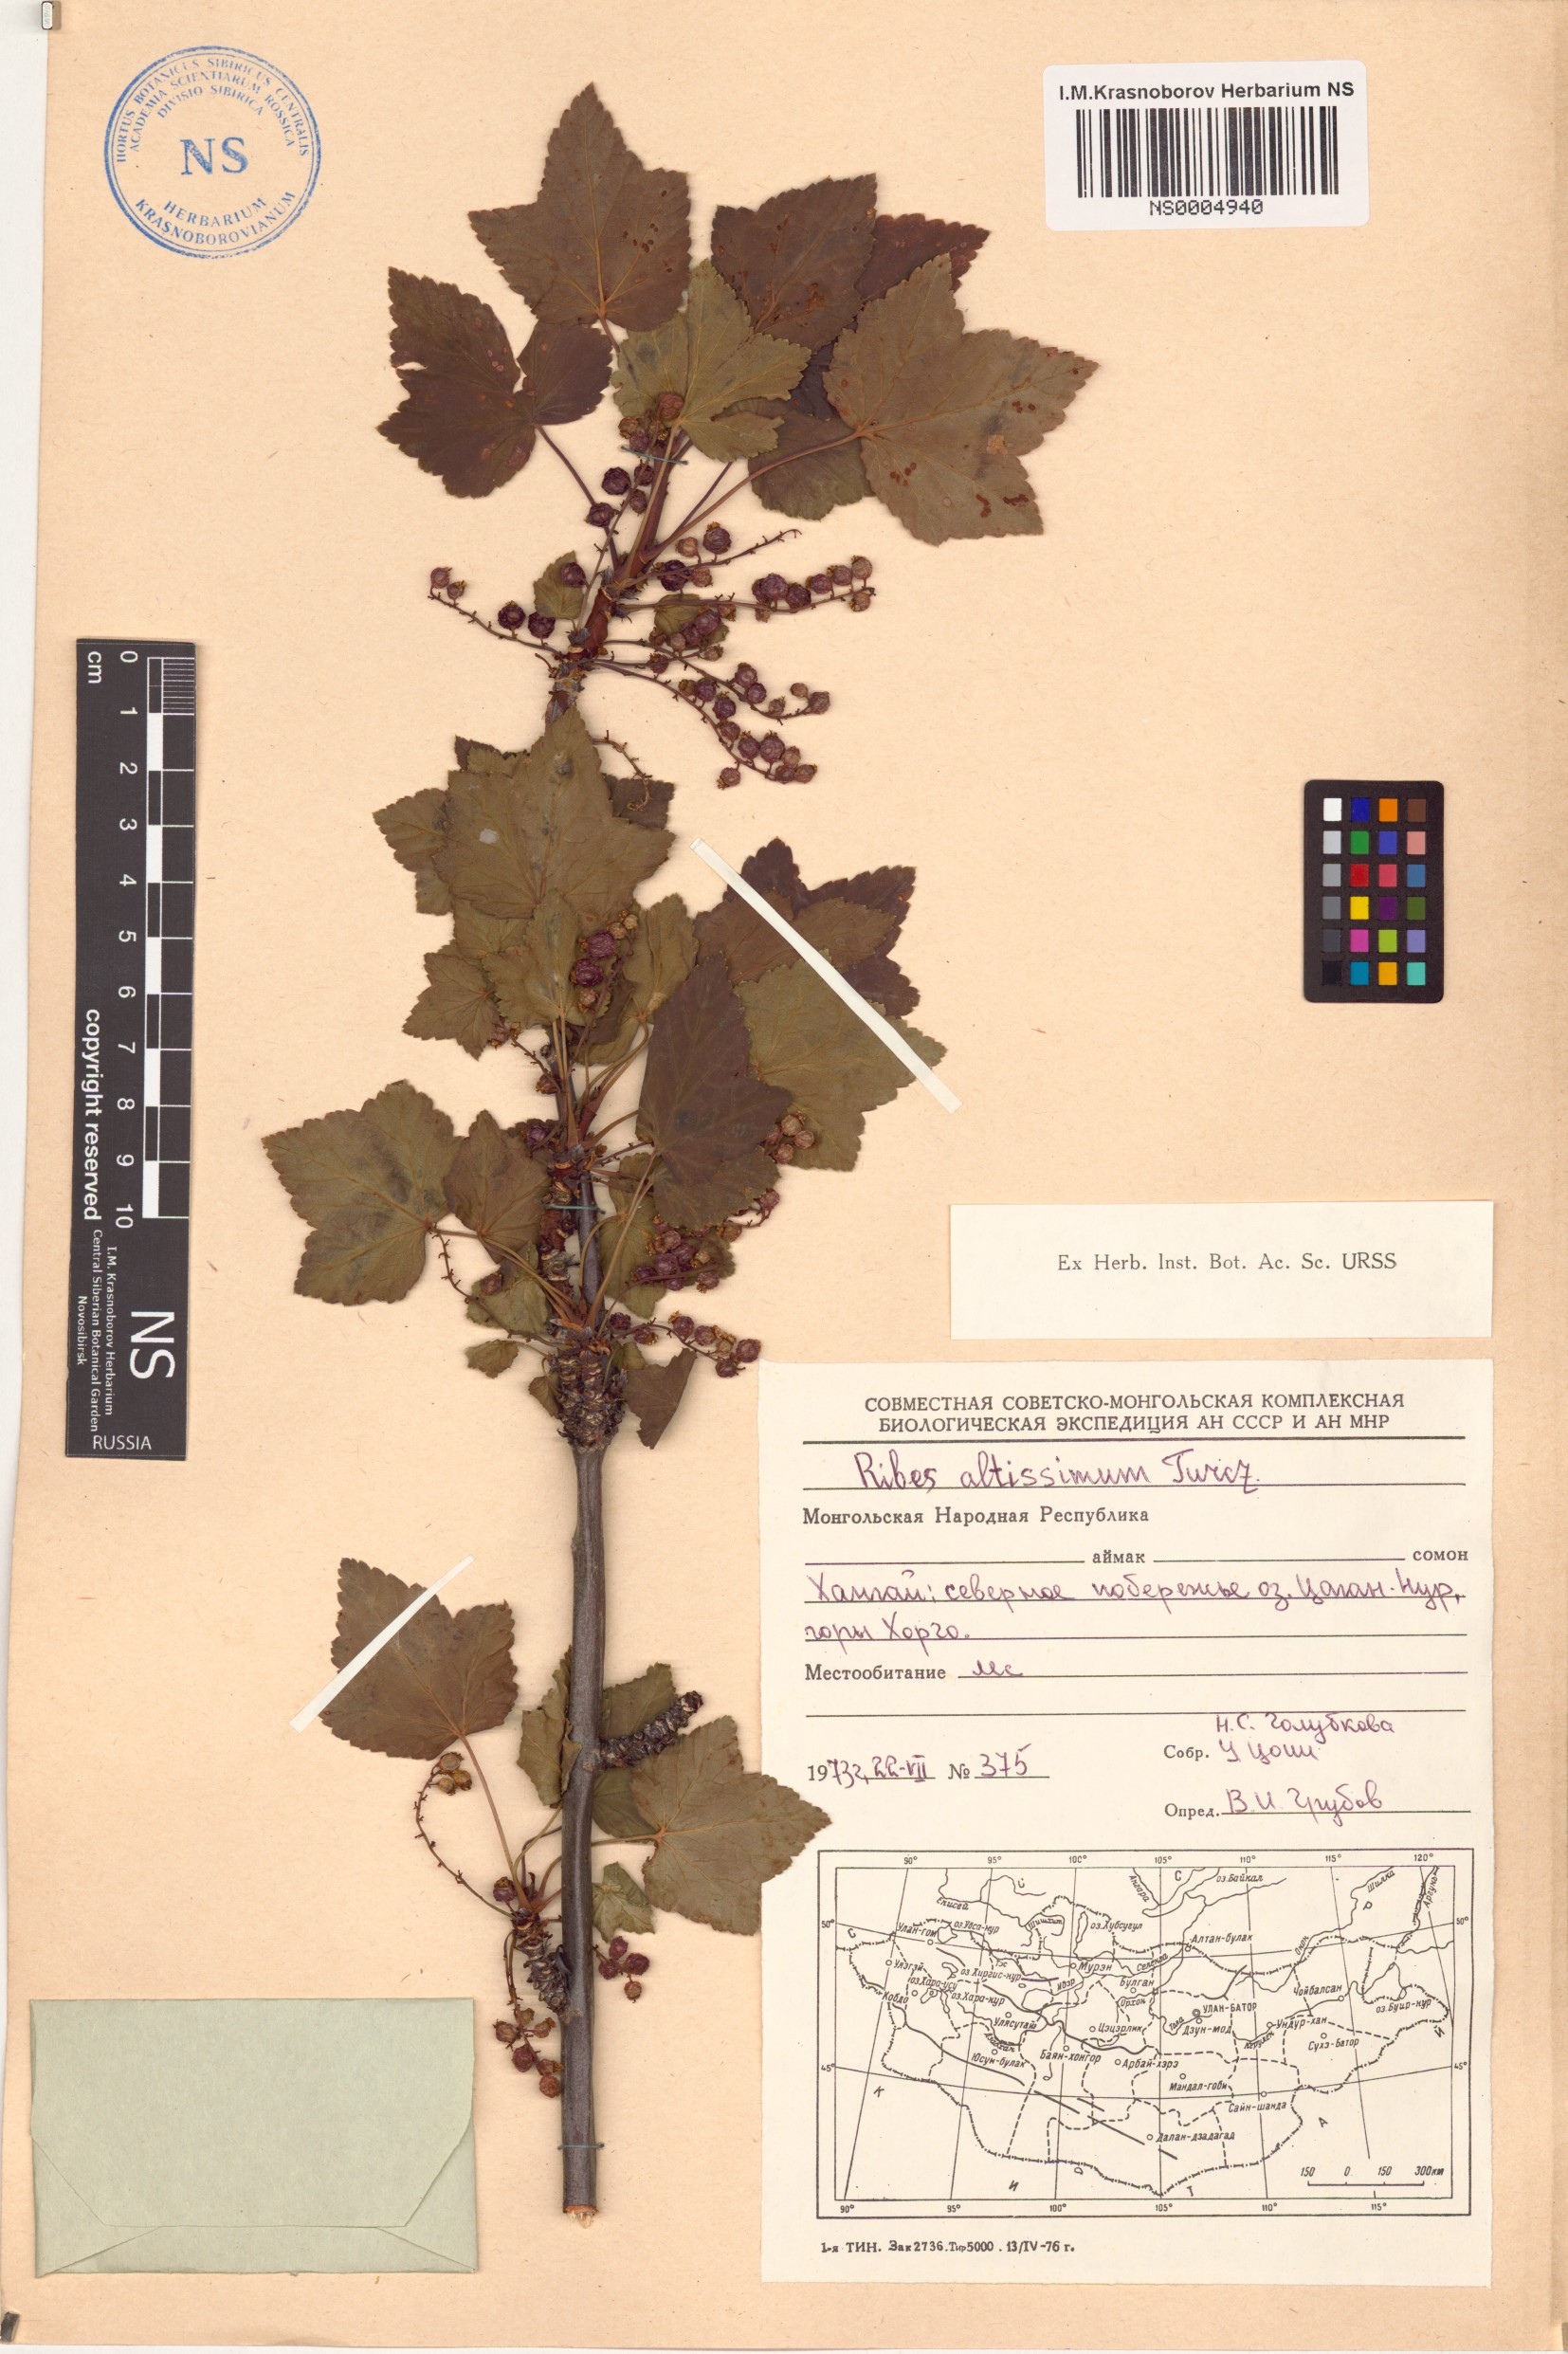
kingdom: Plantae
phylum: Tracheophyta
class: Magnoliopsida
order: Saxifragales
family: Grossulariaceae
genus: Ribes
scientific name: Ribes petraeum
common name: Rock currant
